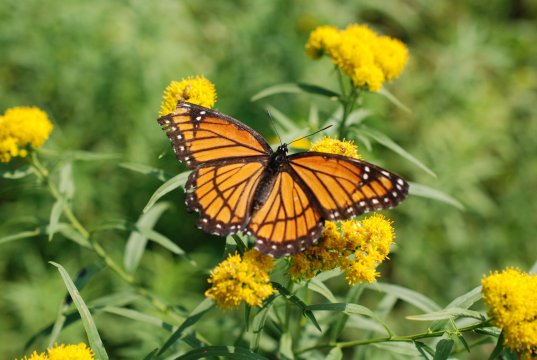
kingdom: Animalia
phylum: Arthropoda
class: Insecta
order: Lepidoptera
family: Nymphalidae
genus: Limenitis
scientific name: Limenitis archippus
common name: Viceroy
